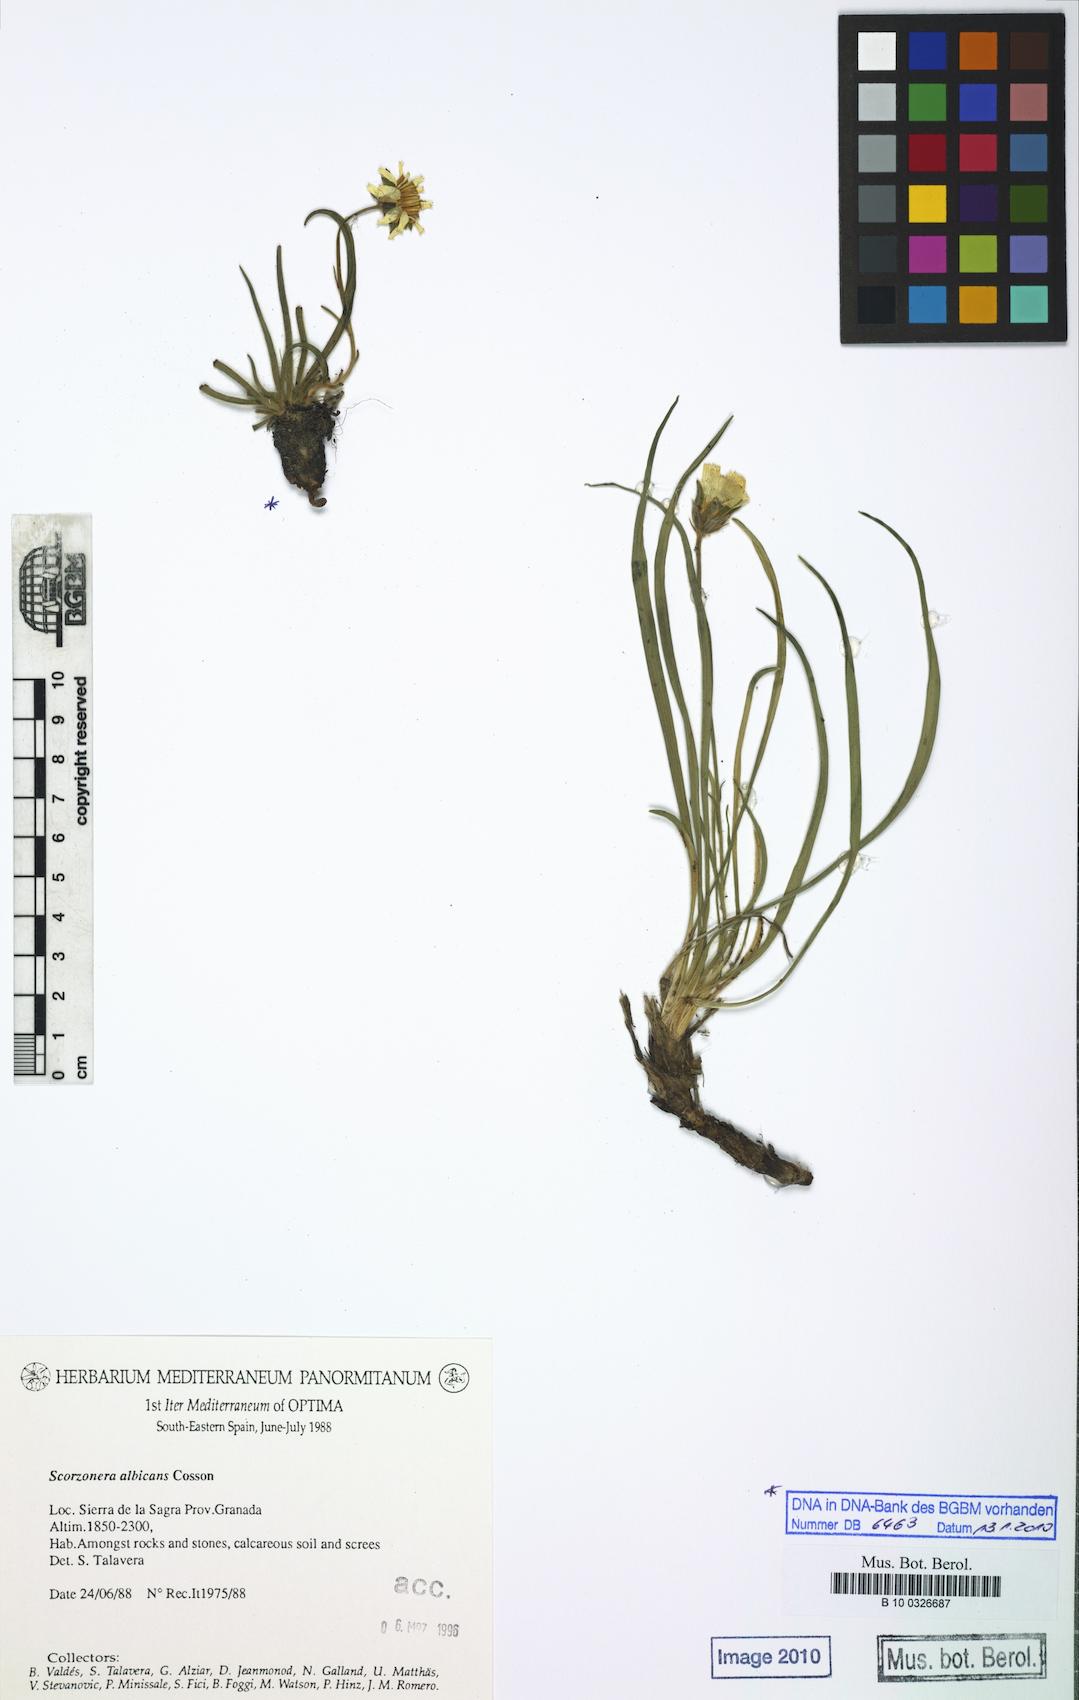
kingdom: Plantae
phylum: Tracheophyta
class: Magnoliopsida
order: Asterales
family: Asteraceae
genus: Gelasia
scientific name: Gelasia albicans
